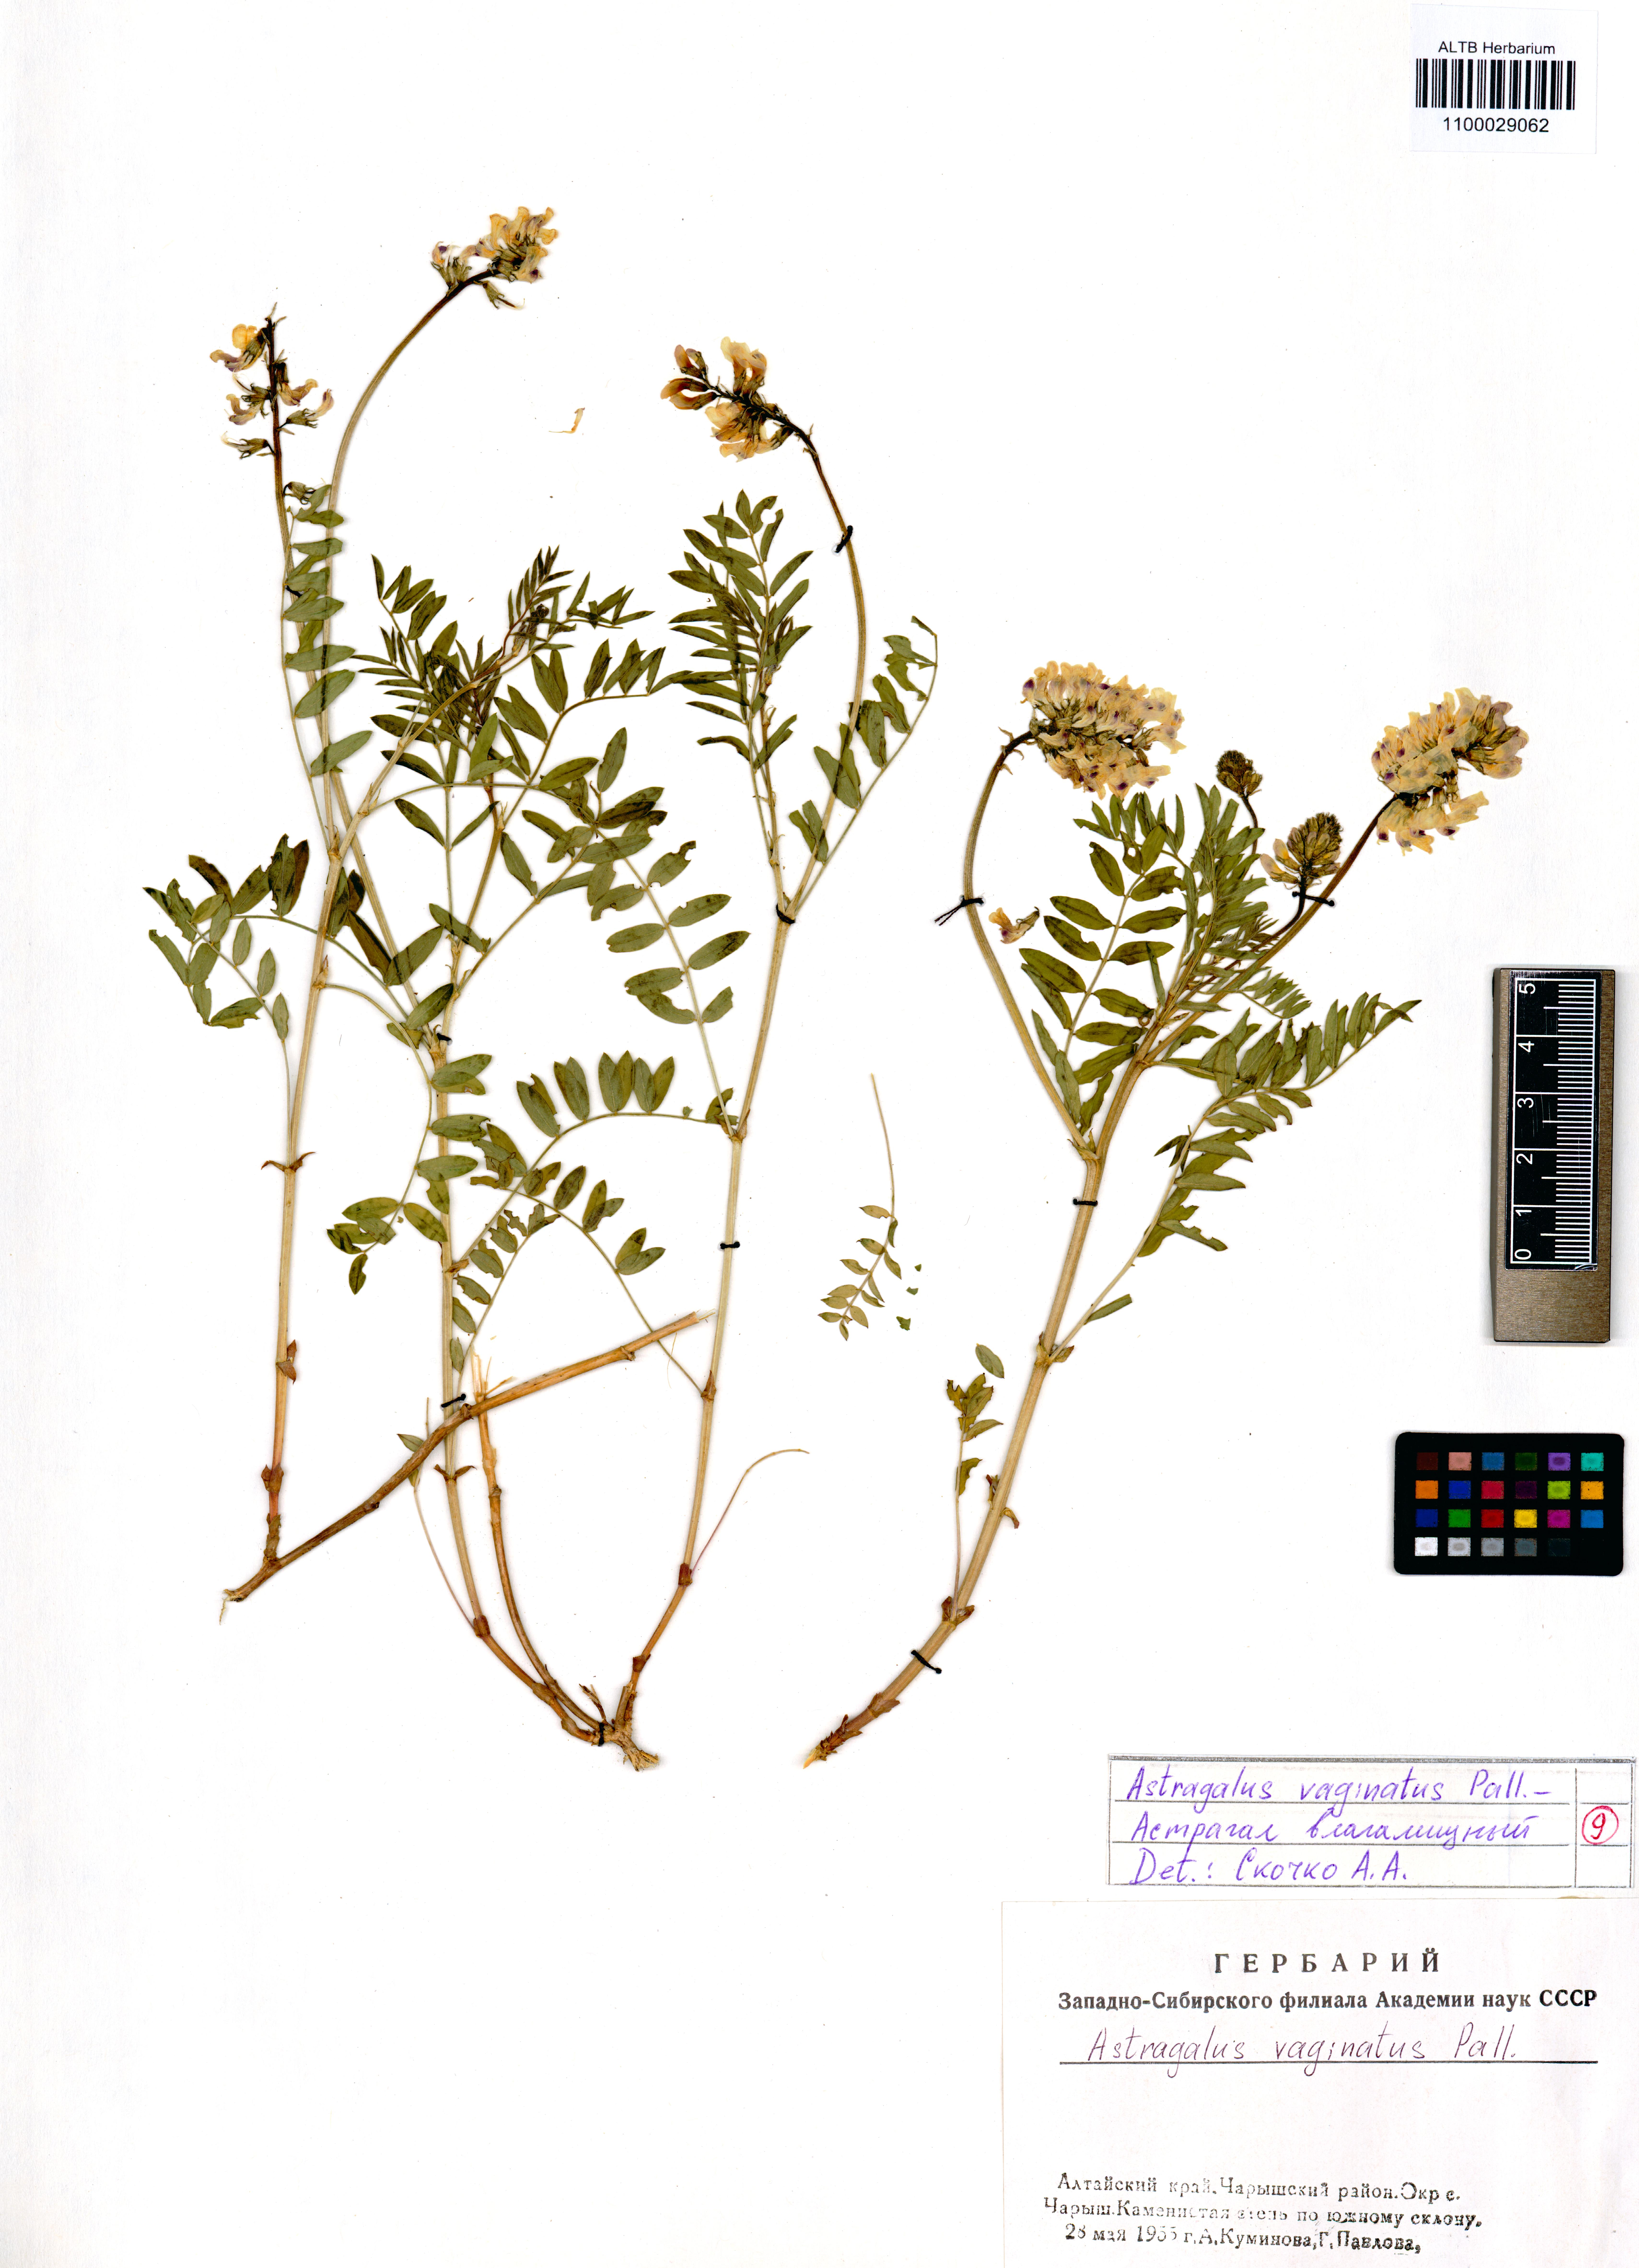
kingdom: Plantae
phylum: Tracheophyta
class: Magnoliopsida
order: Fabales
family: Fabaceae
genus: Astragalus
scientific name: Astragalus vaginatus
